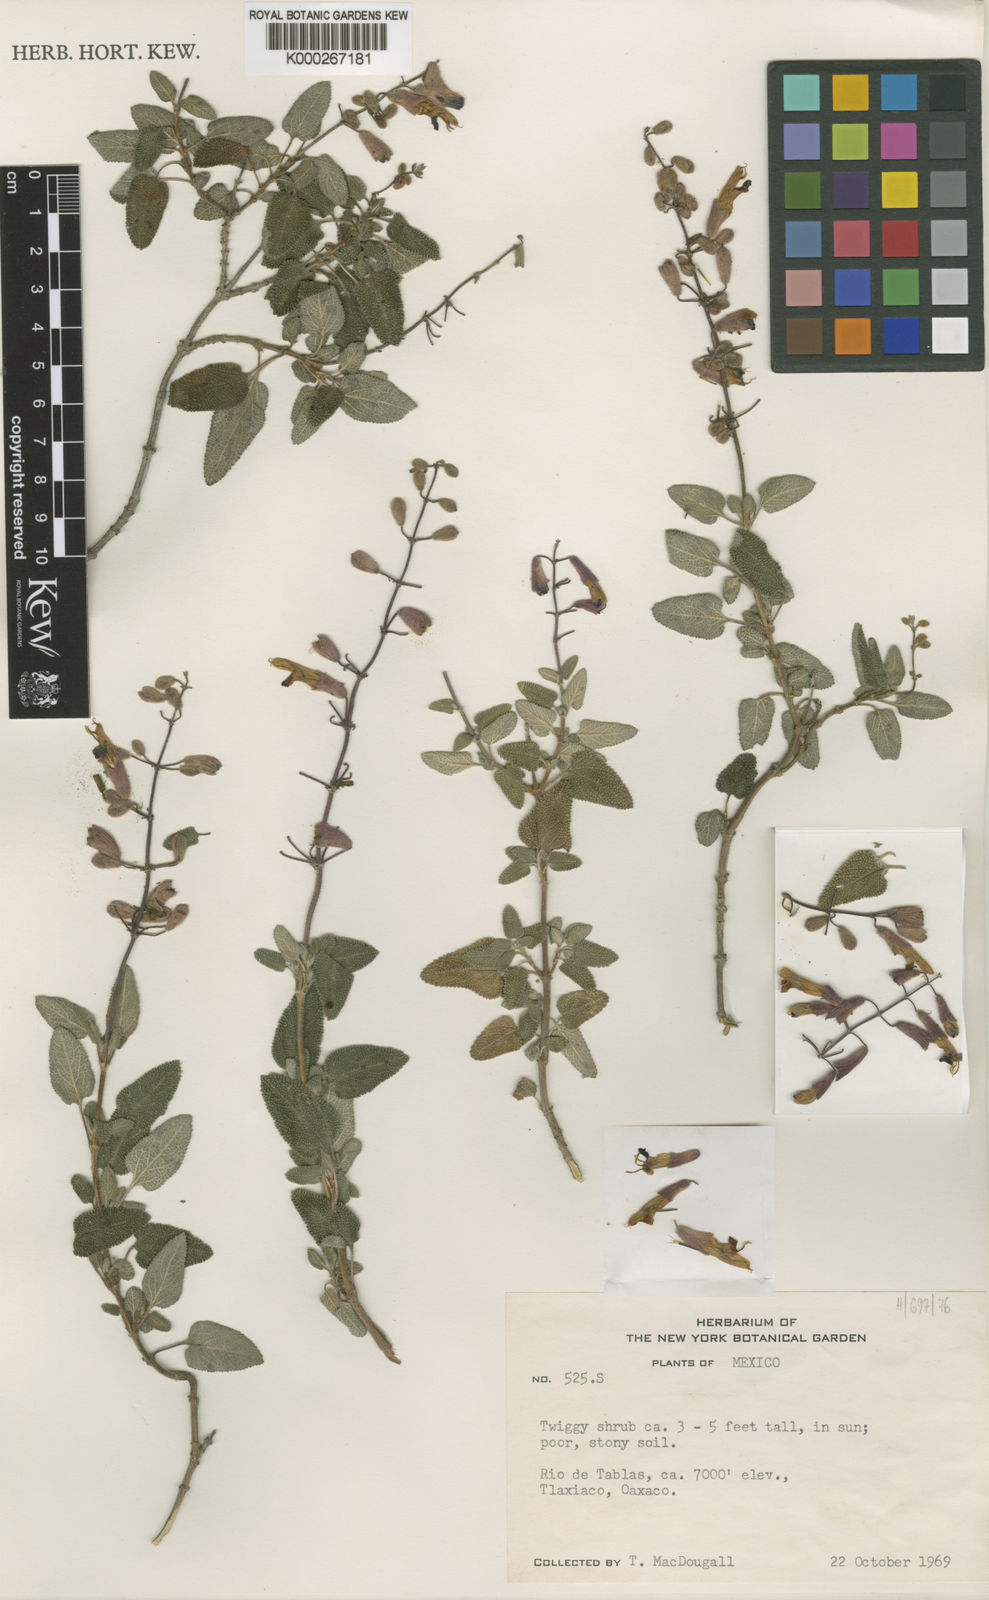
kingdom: Plantae
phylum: Tracheophyta
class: Magnoliopsida
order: Lamiales
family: Lamiaceae
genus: Salvia
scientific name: Salvia semiatrata
